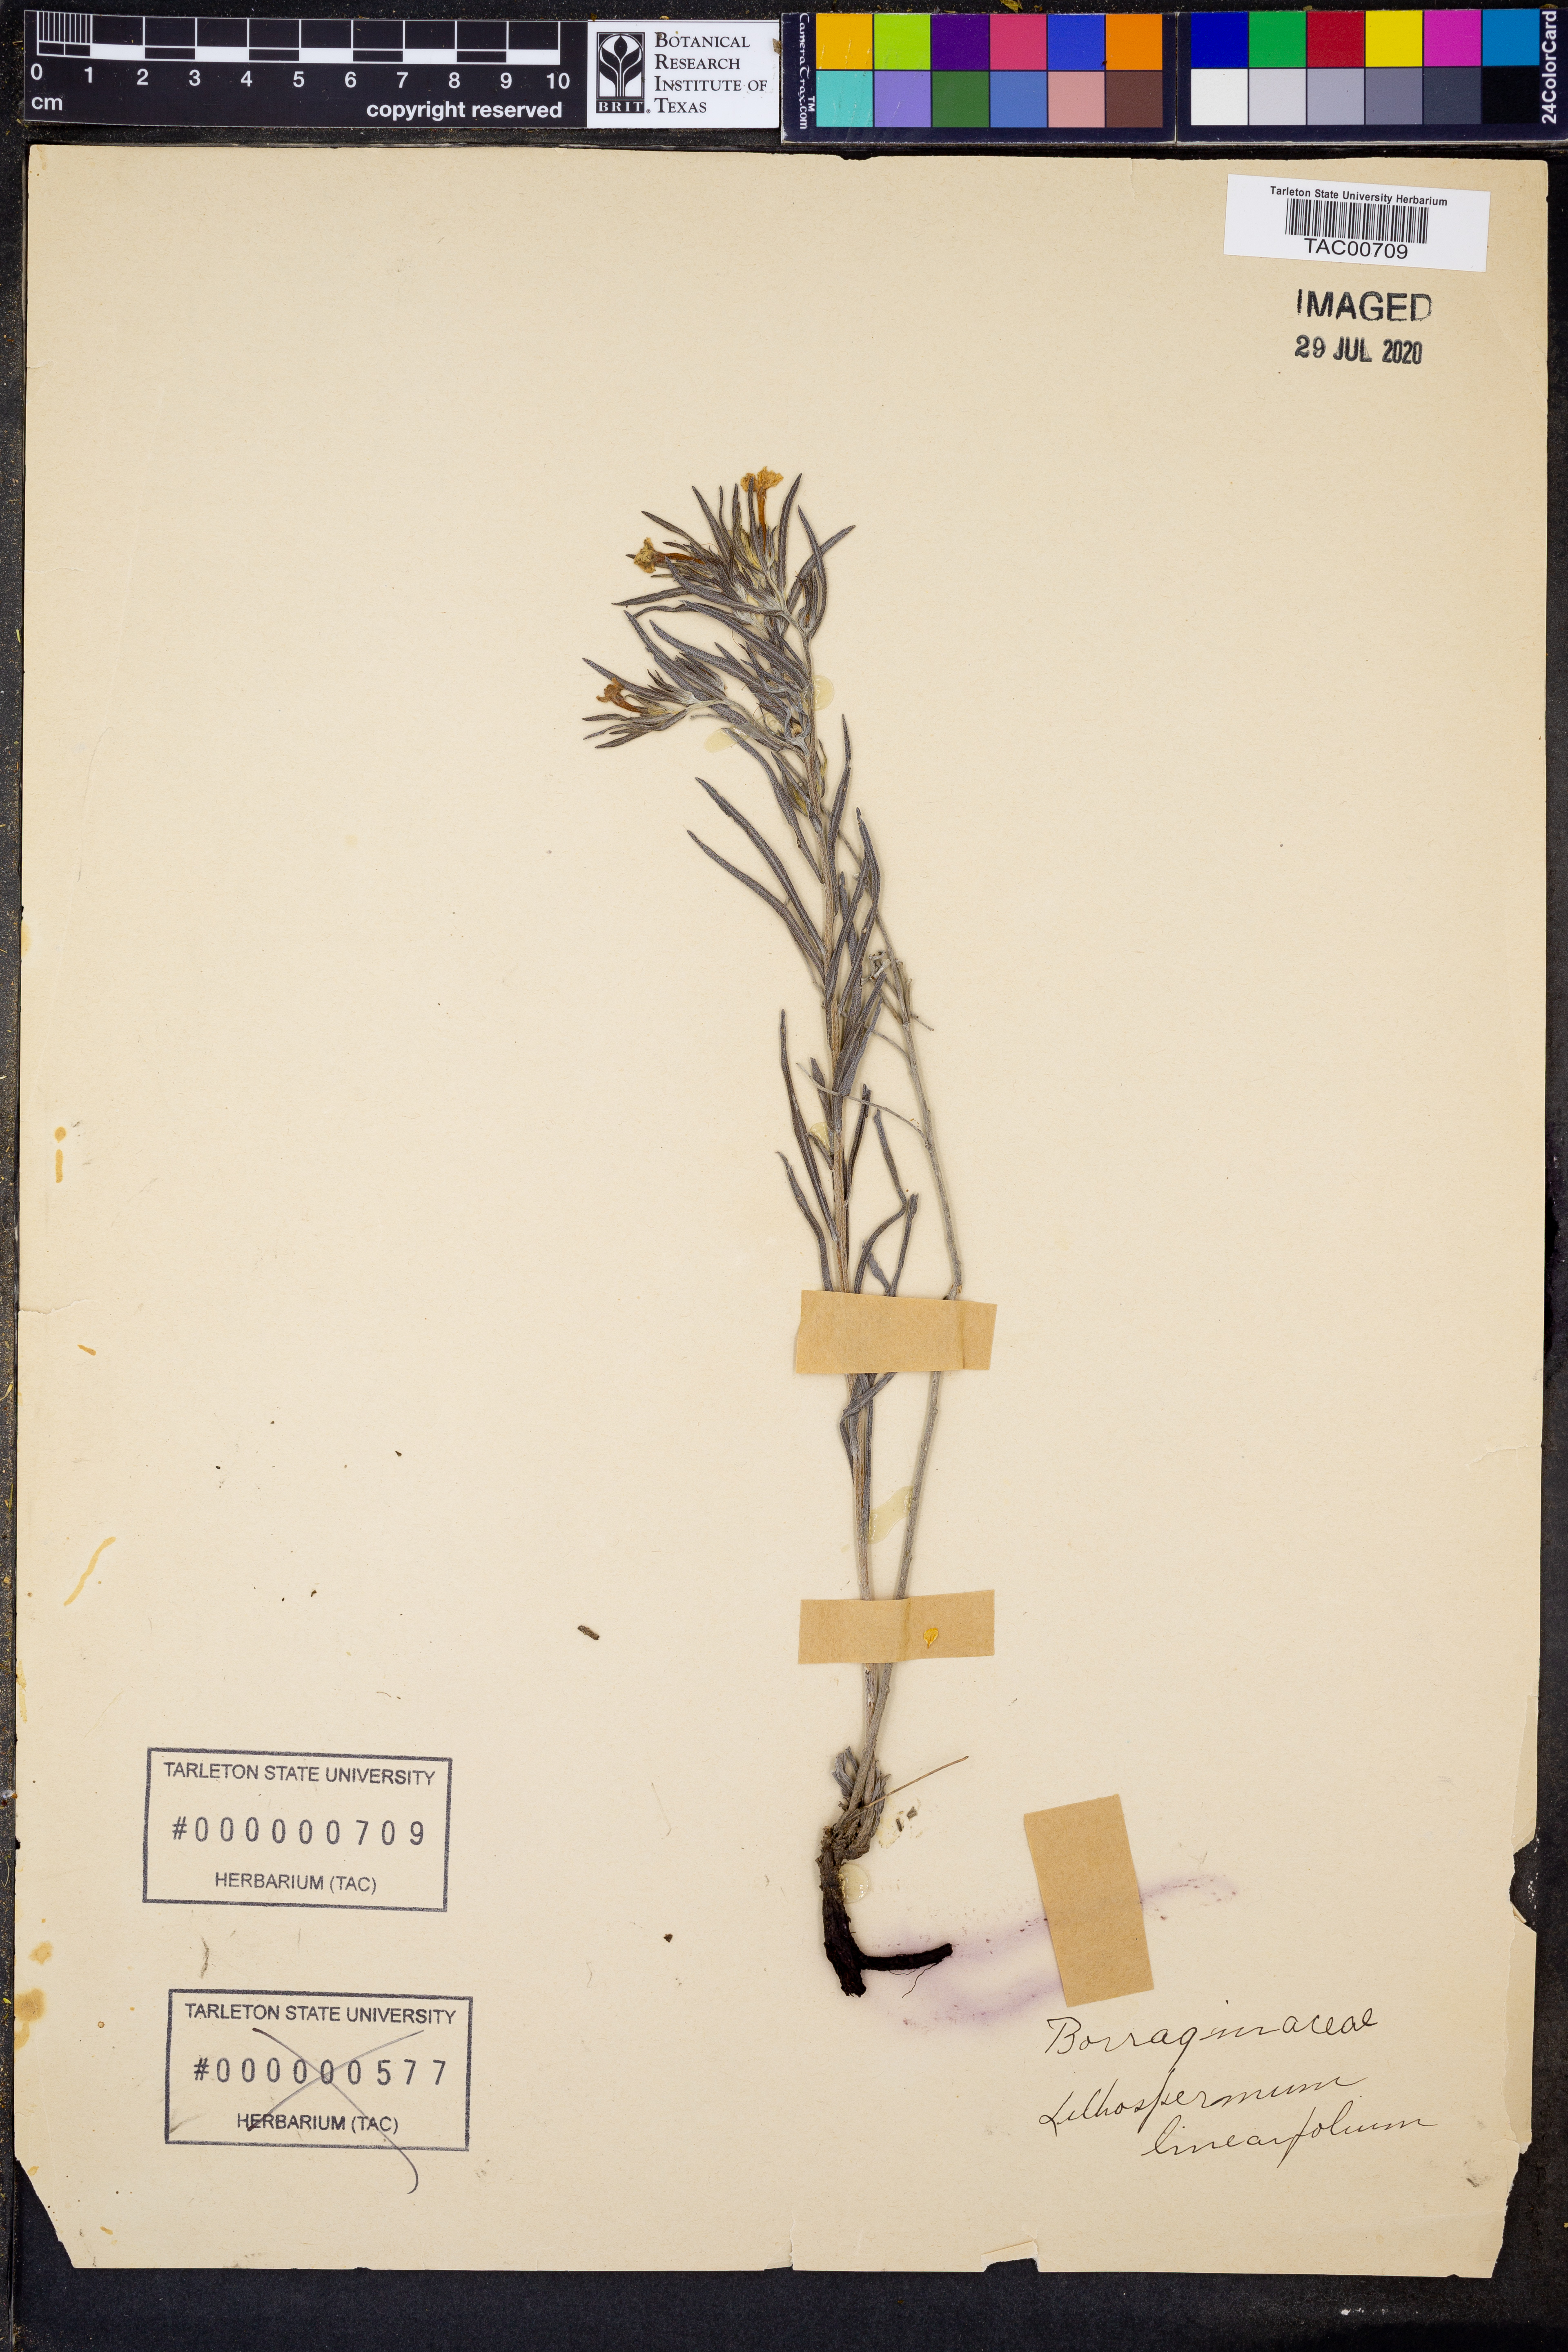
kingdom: Plantae
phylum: Tracheophyta
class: Magnoliopsida
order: Boraginales
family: Boraginaceae
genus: Lithospermum
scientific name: Lithospermum incisum
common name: Fringed gromwell
